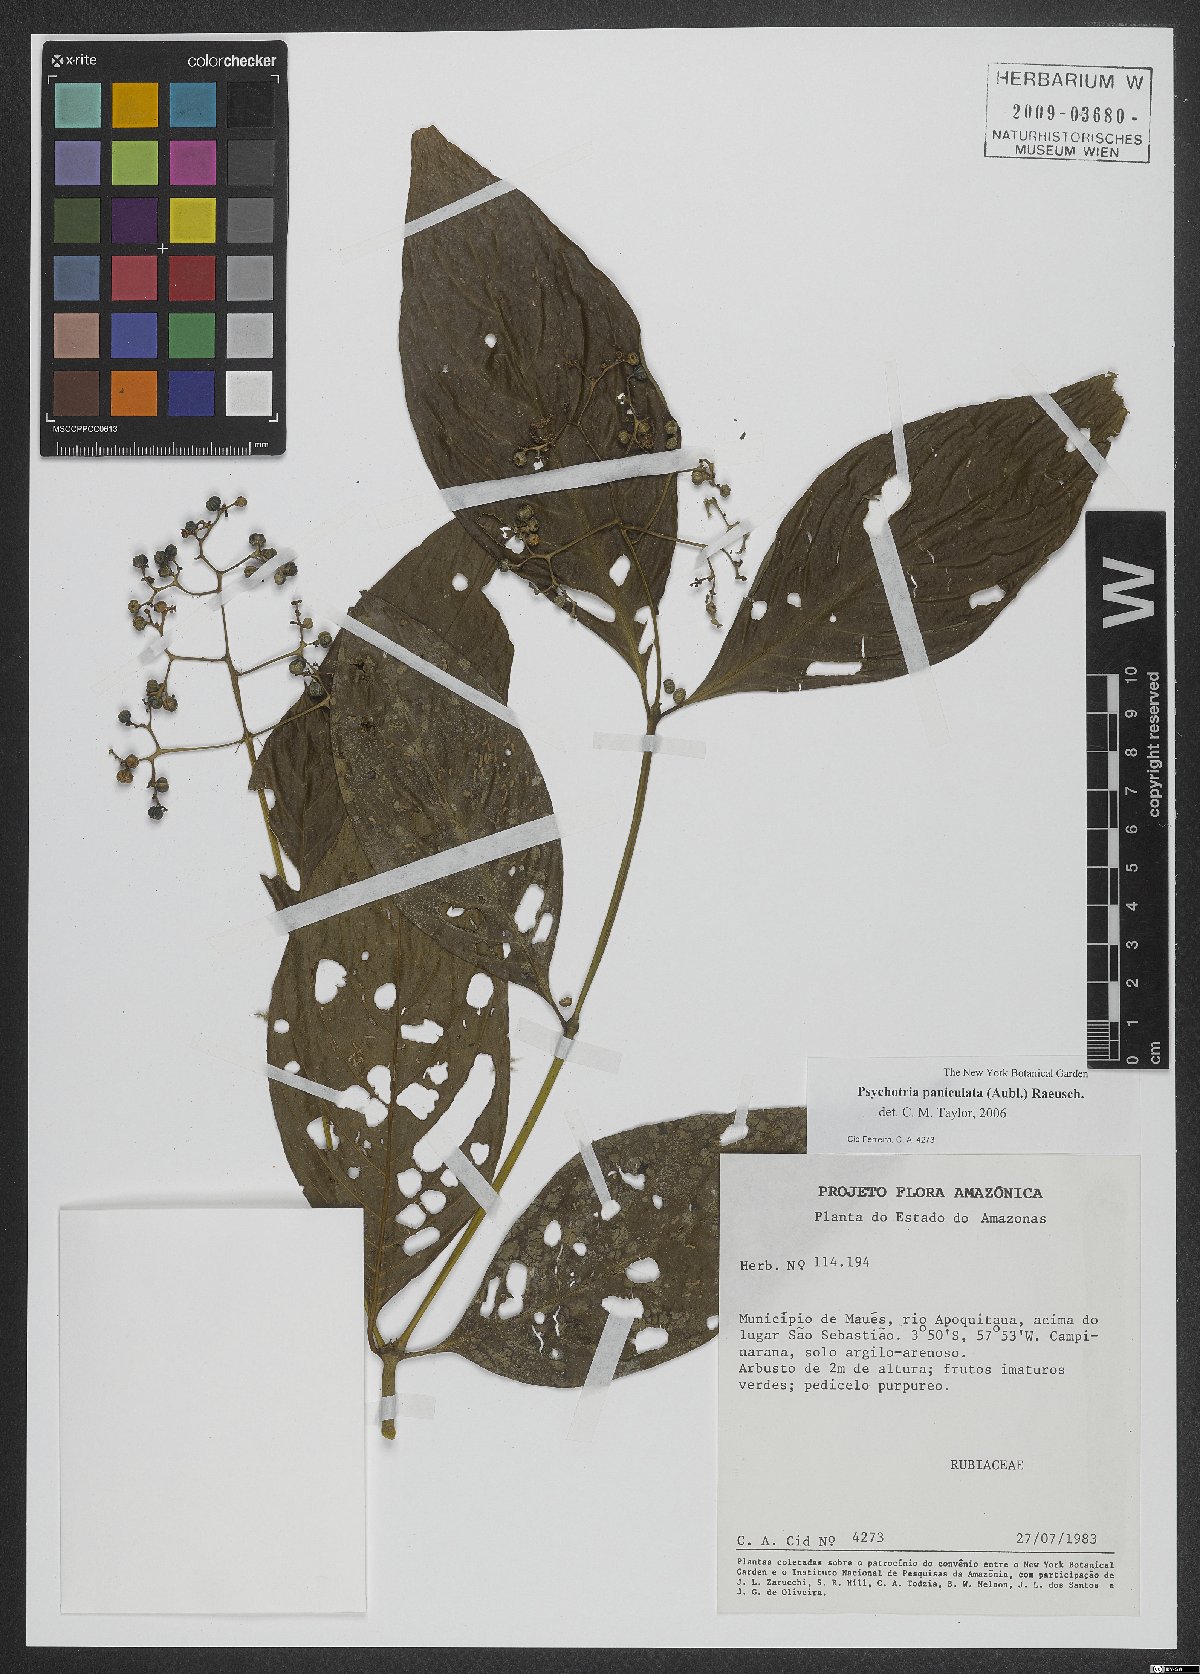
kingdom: Plantae
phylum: Tracheophyta
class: Magnoliopsida
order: Gentianales
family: Rubiaceae
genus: Palicourea
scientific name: Palicourea obliquinervia
